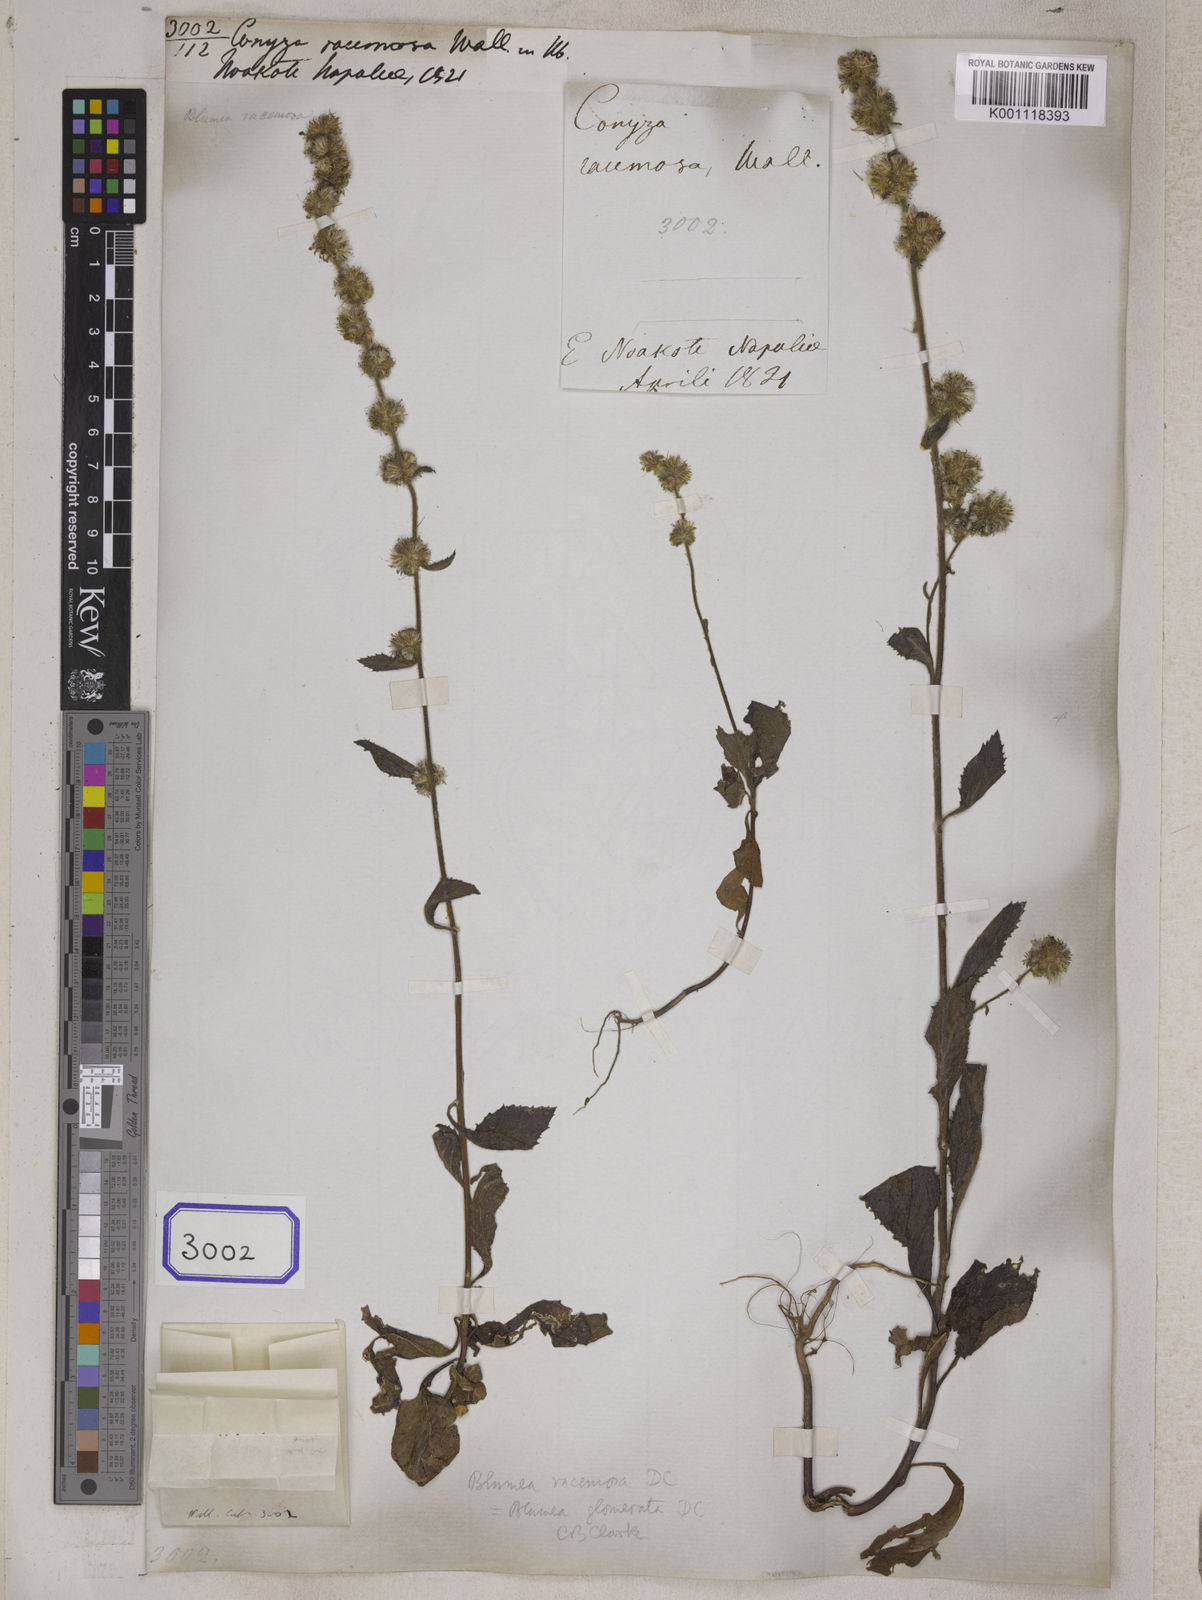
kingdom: Plantae
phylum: Tracheophyta
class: Magnoliopsida
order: Asterales
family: Asteraceae
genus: Blumea
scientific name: Blumea fistulosa
